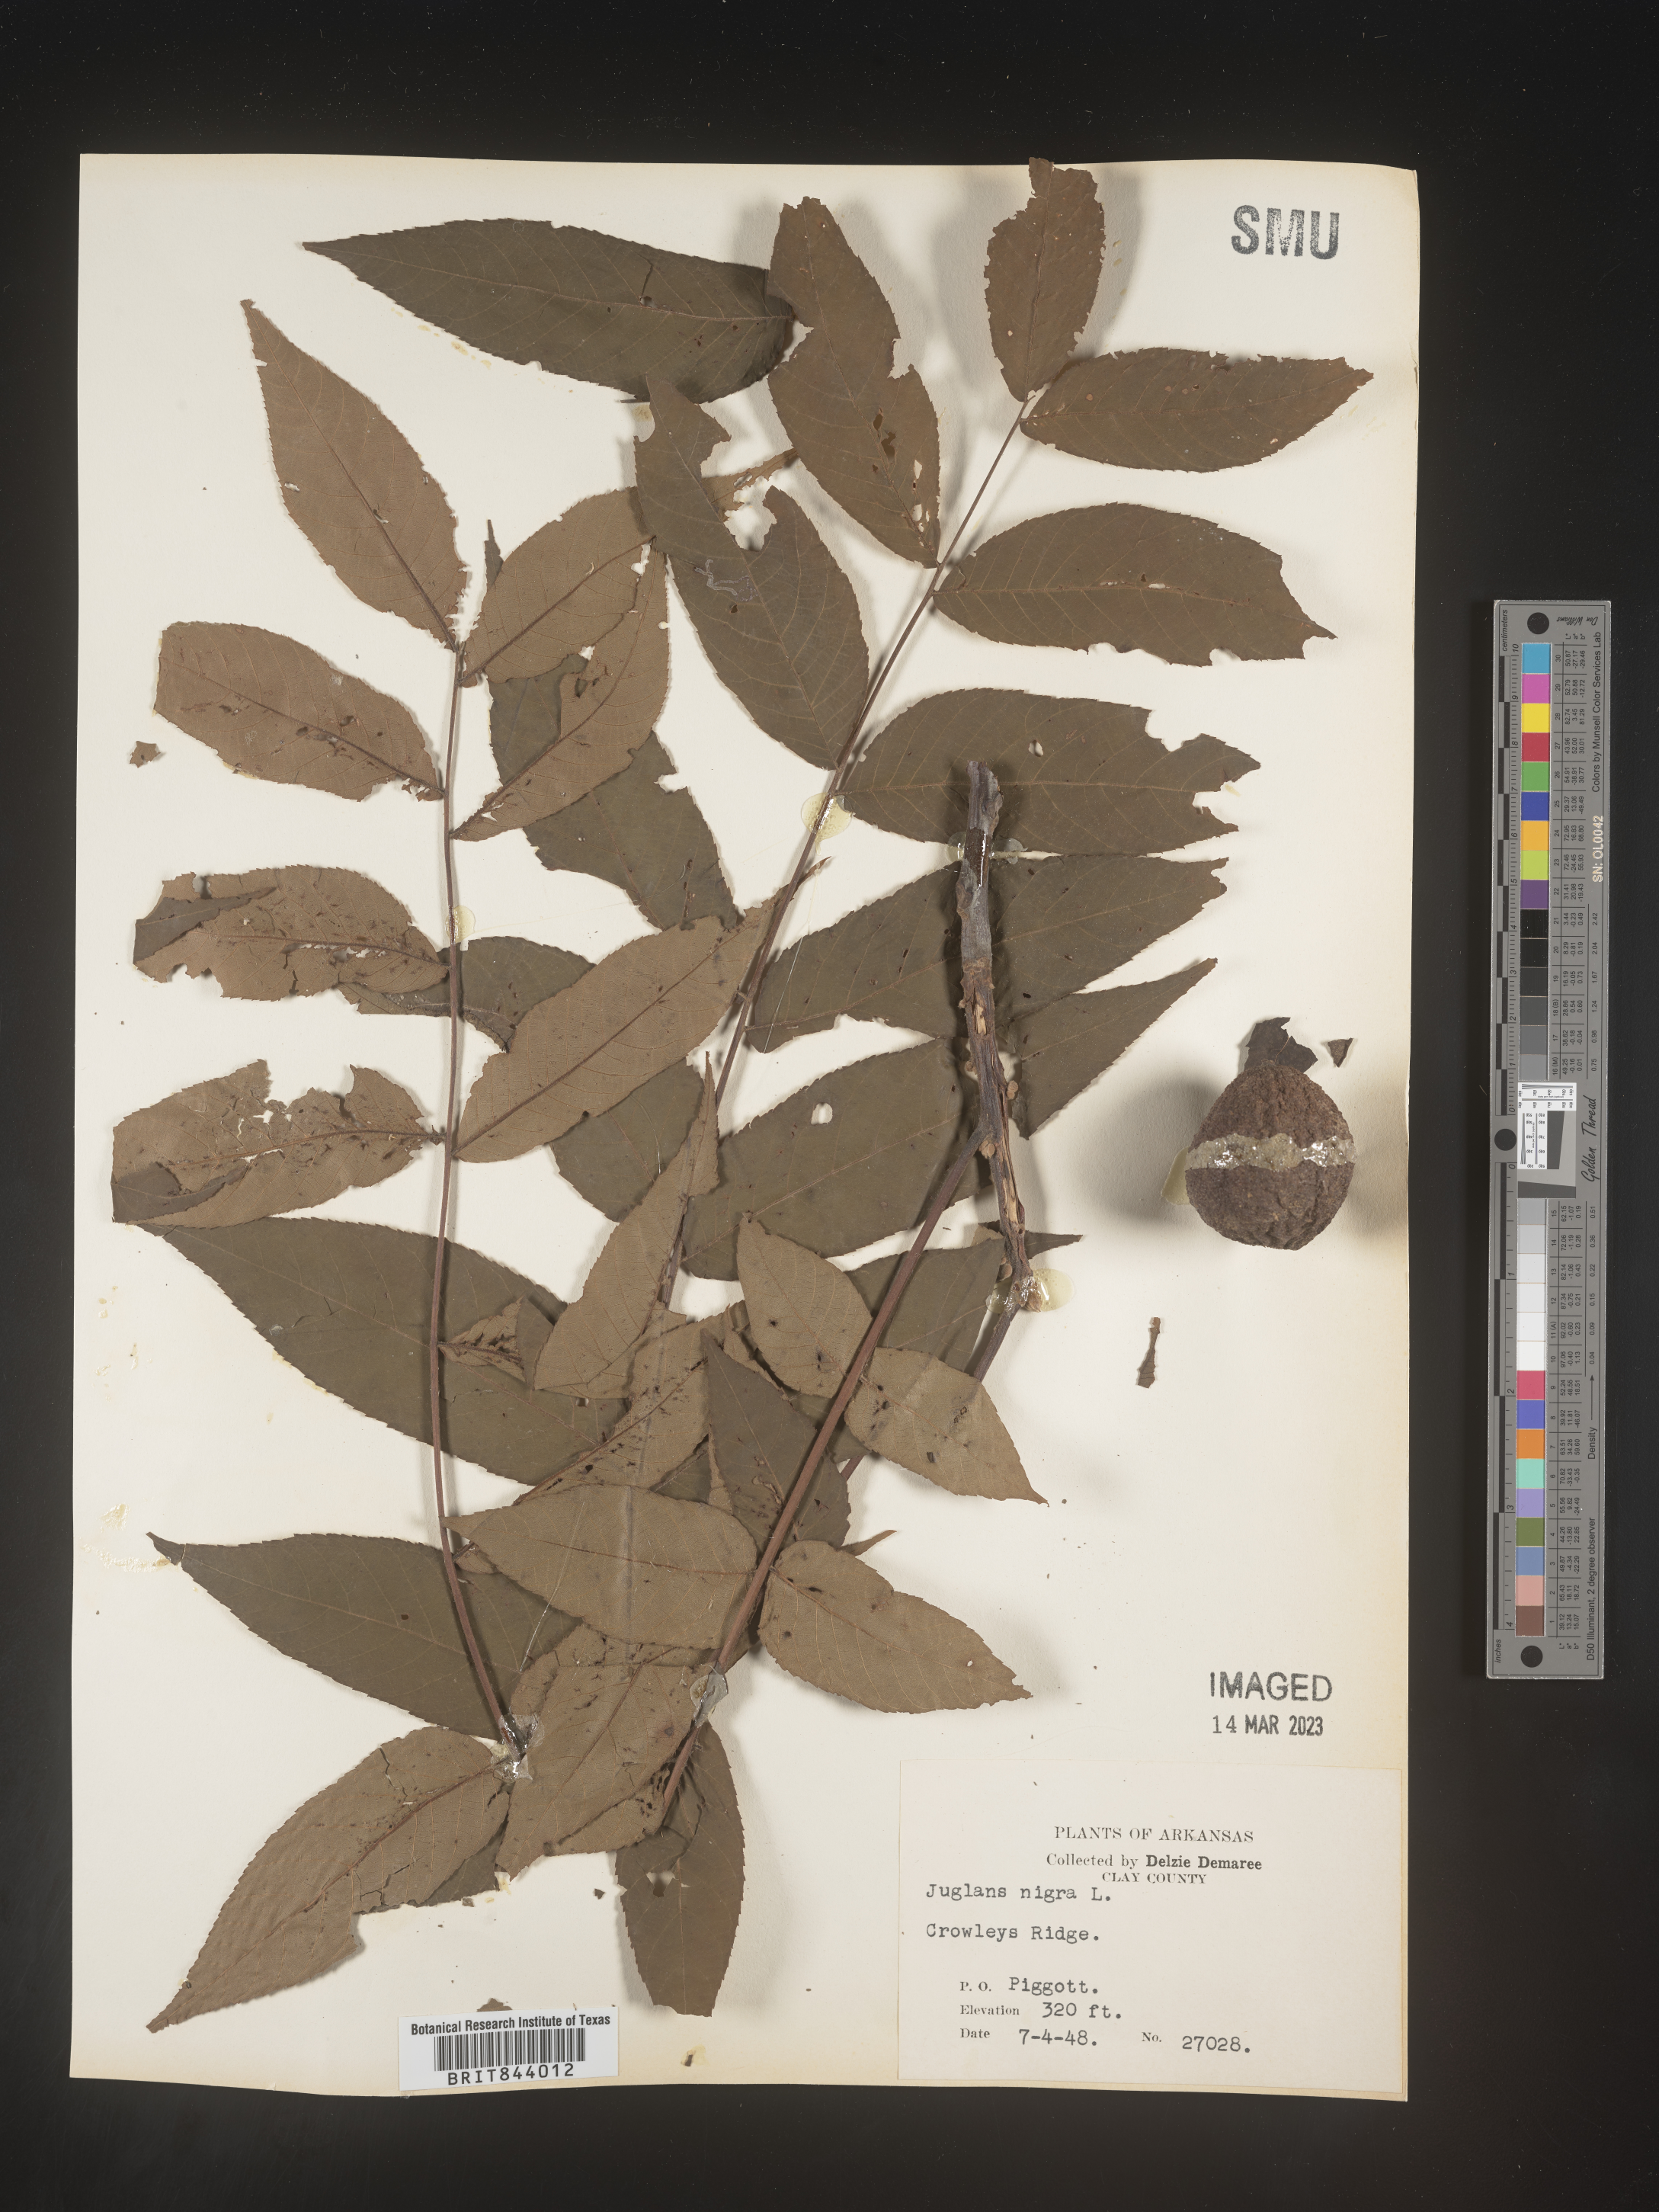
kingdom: Plantae
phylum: Tracheophyta
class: Magnoliopsida
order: Fagales
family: Juglandaceae
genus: Juglans
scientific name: Juglans nigra
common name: Black walnut
